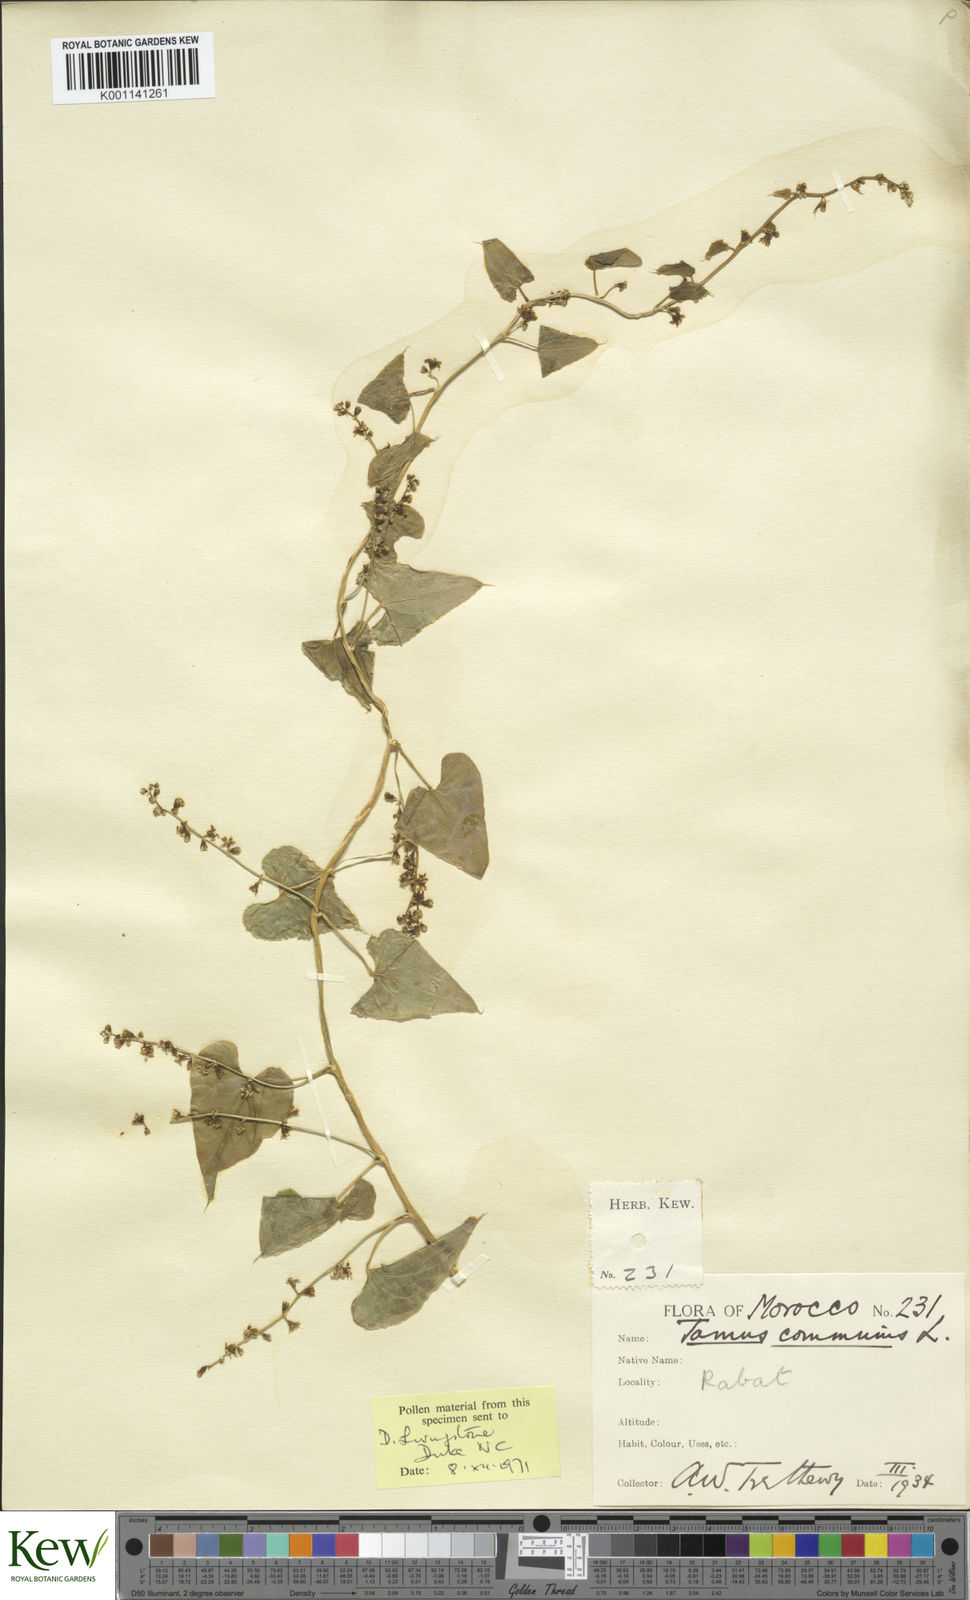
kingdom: Plantae
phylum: Tracheophyta
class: Liliopsida
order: Dioscoreales
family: Dioscoreaceae
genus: Dioscorea
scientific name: Dioscorea communis
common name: Black-bindweed
